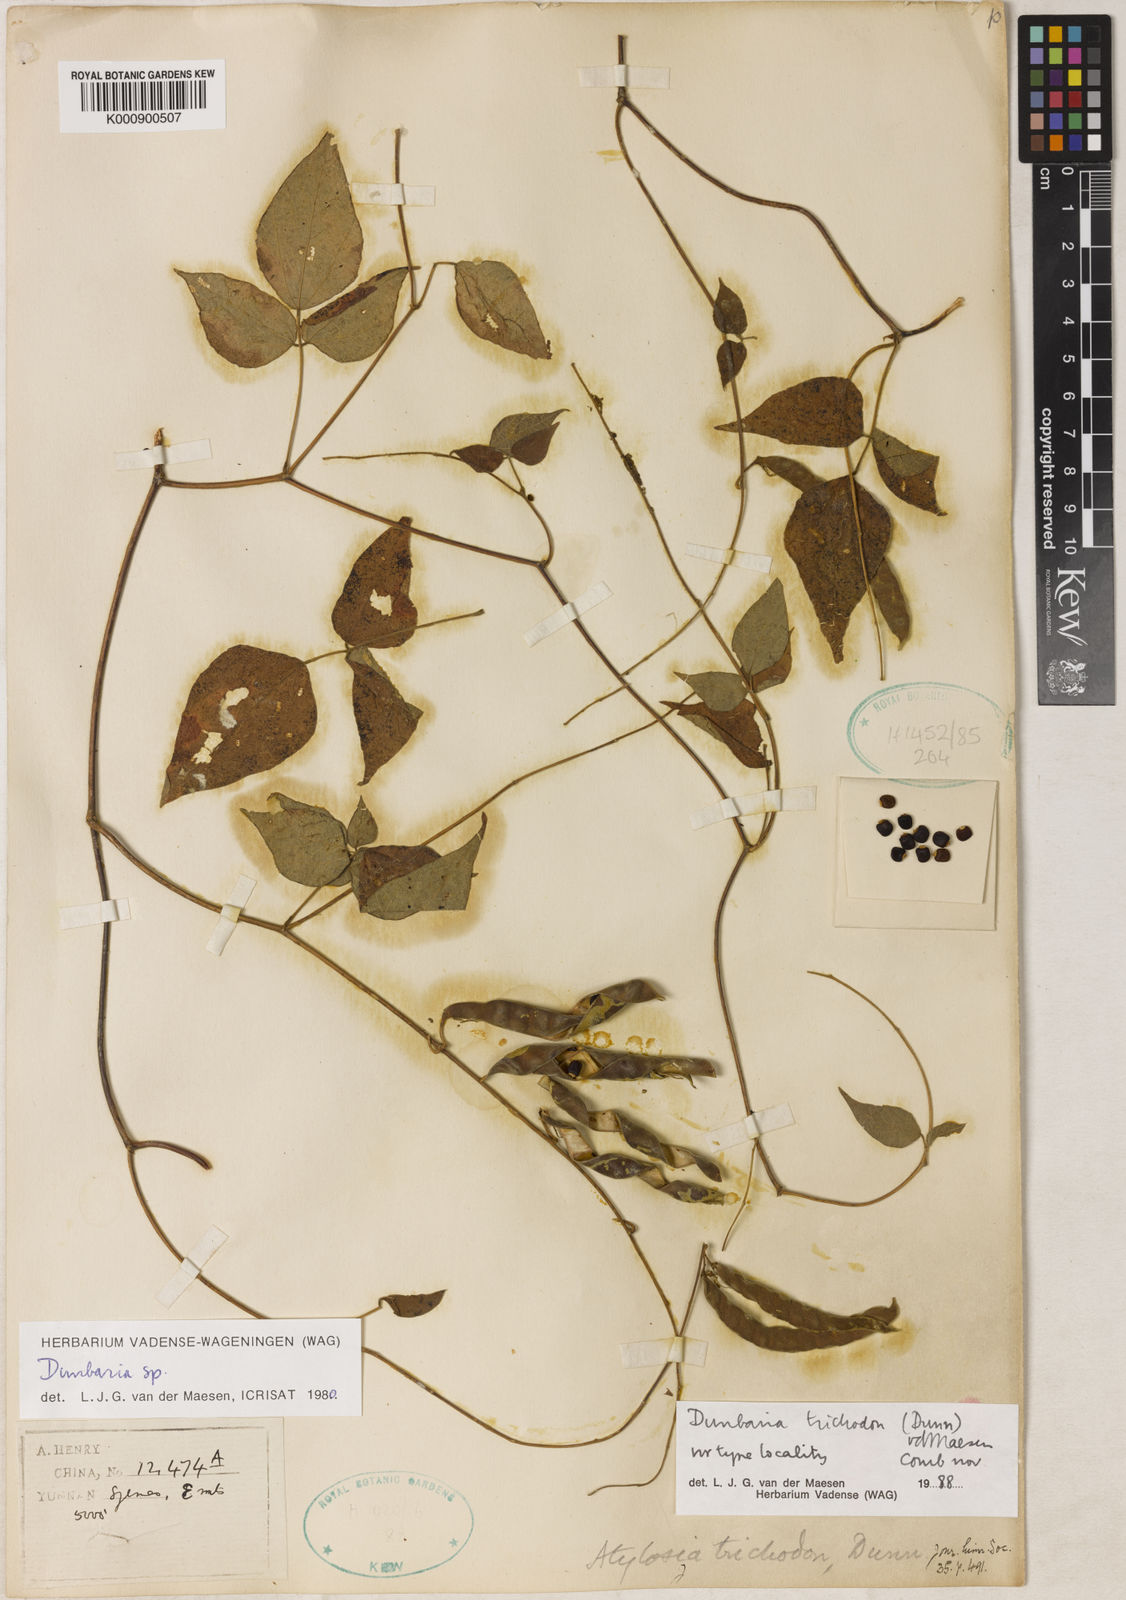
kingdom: Plantae
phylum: Tracheophyta
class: Magnoliopsida
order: Fabales
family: Fabaceae
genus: Dunbaria
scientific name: Dunbaria trichodon
